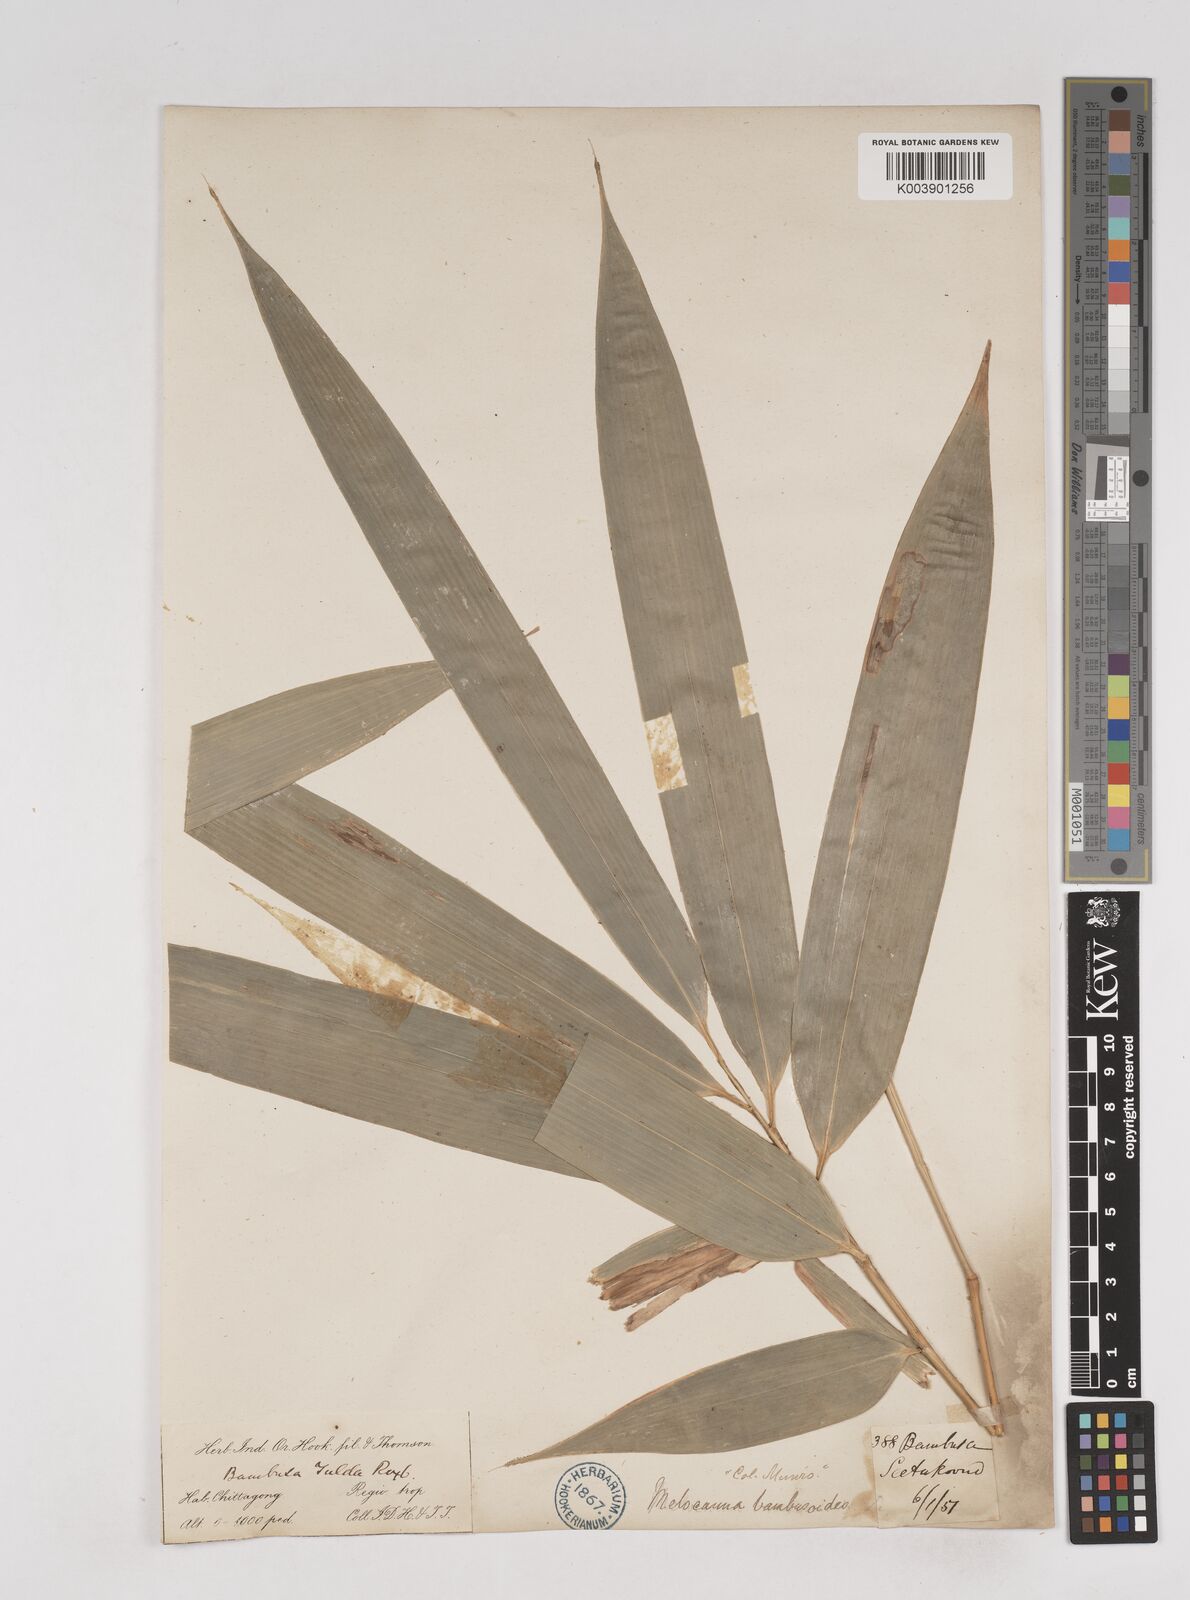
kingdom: Plantae
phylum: Tracheophyta
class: Liliopsida
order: Poales
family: Poaceae
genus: Melocanna
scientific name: Melocanna baccifera
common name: Berry bamboo
